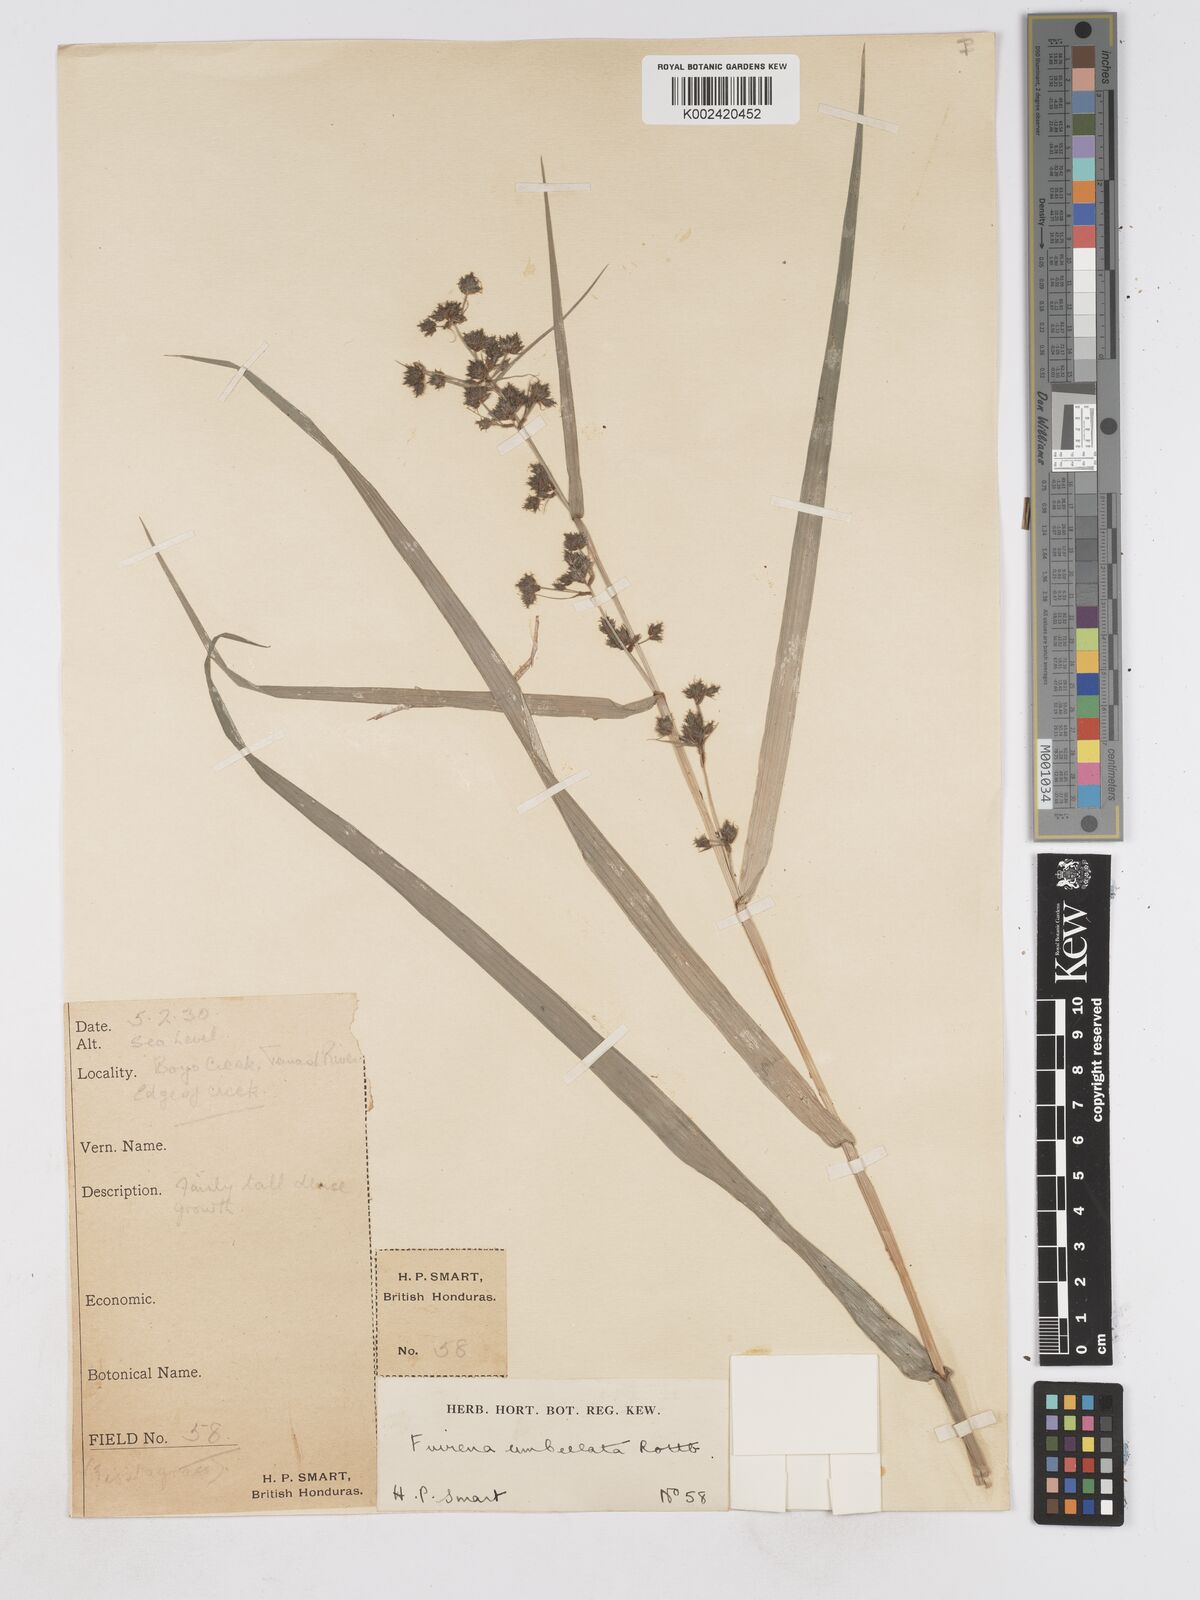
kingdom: Plantae
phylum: Tracheophyta
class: Liliopsida
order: Poales
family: Cyperaceae
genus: Fuirena
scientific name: Fuirena umbellata
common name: Yefen
